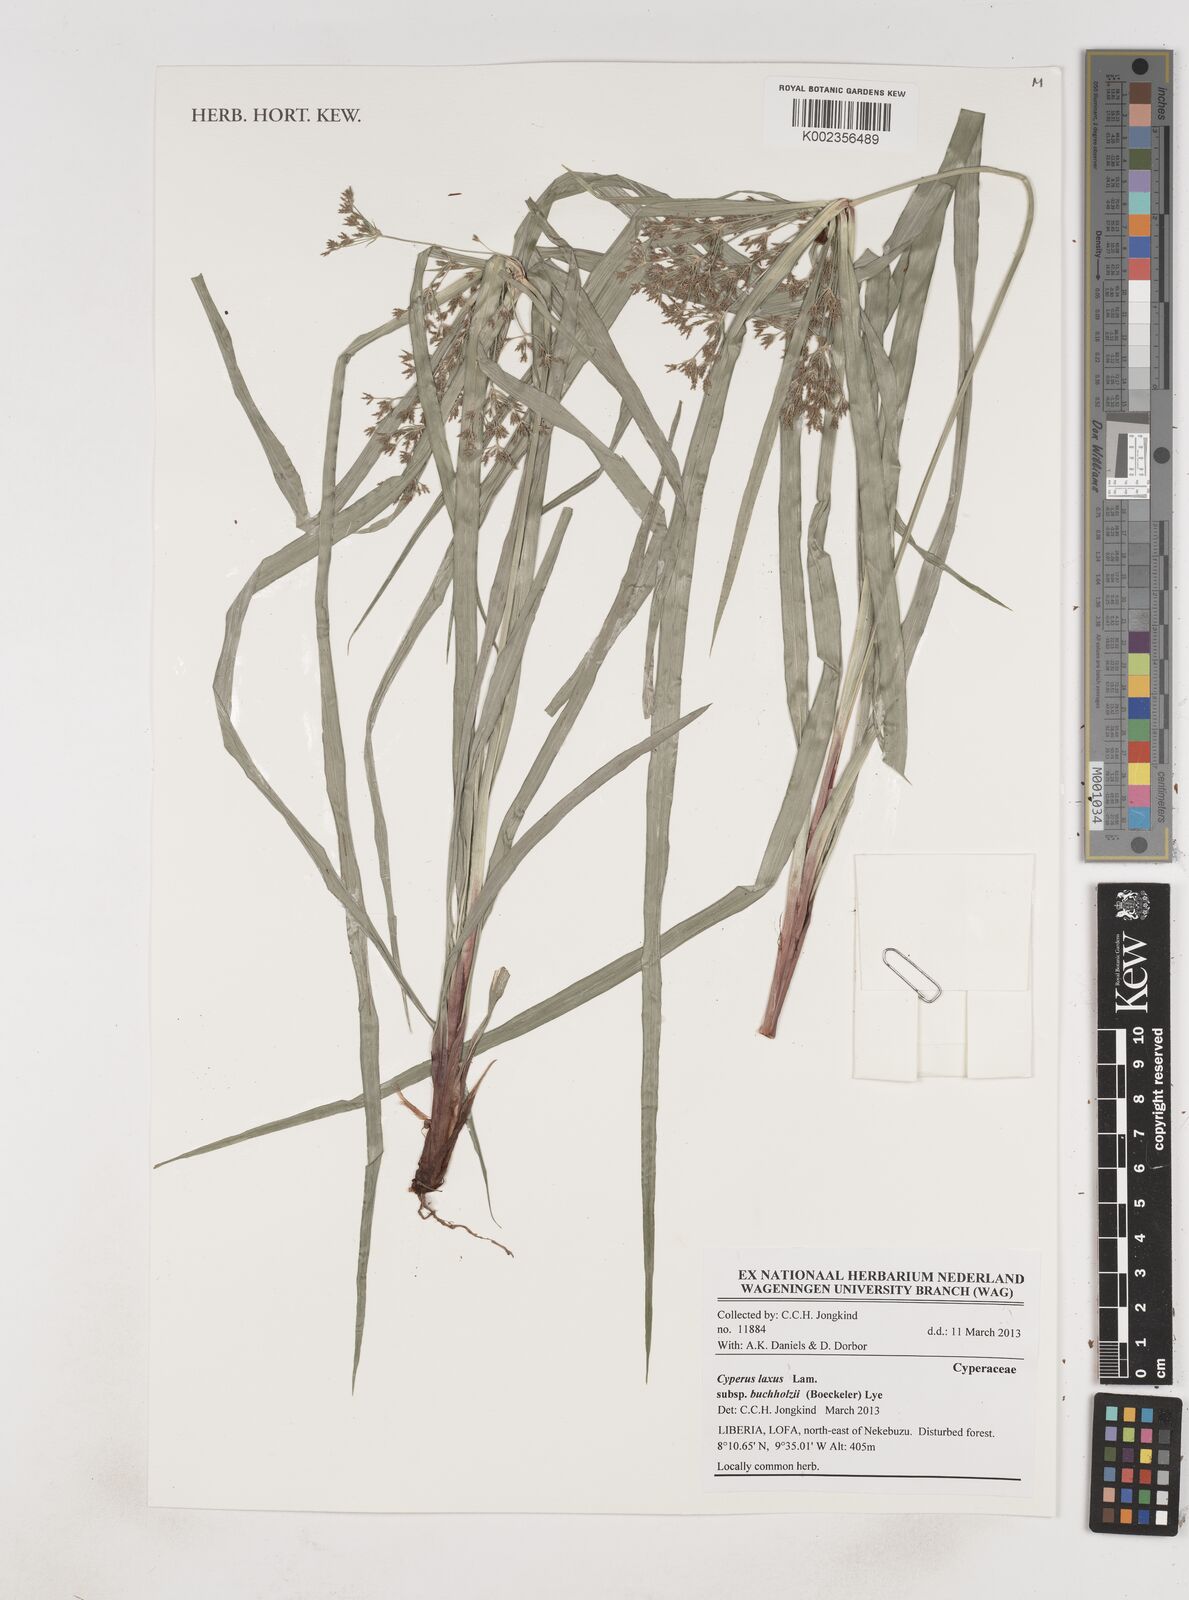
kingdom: Plantae
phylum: Tracheophyta
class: Liliopsida
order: Poales
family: Cyperaceae
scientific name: Cyperaceae
